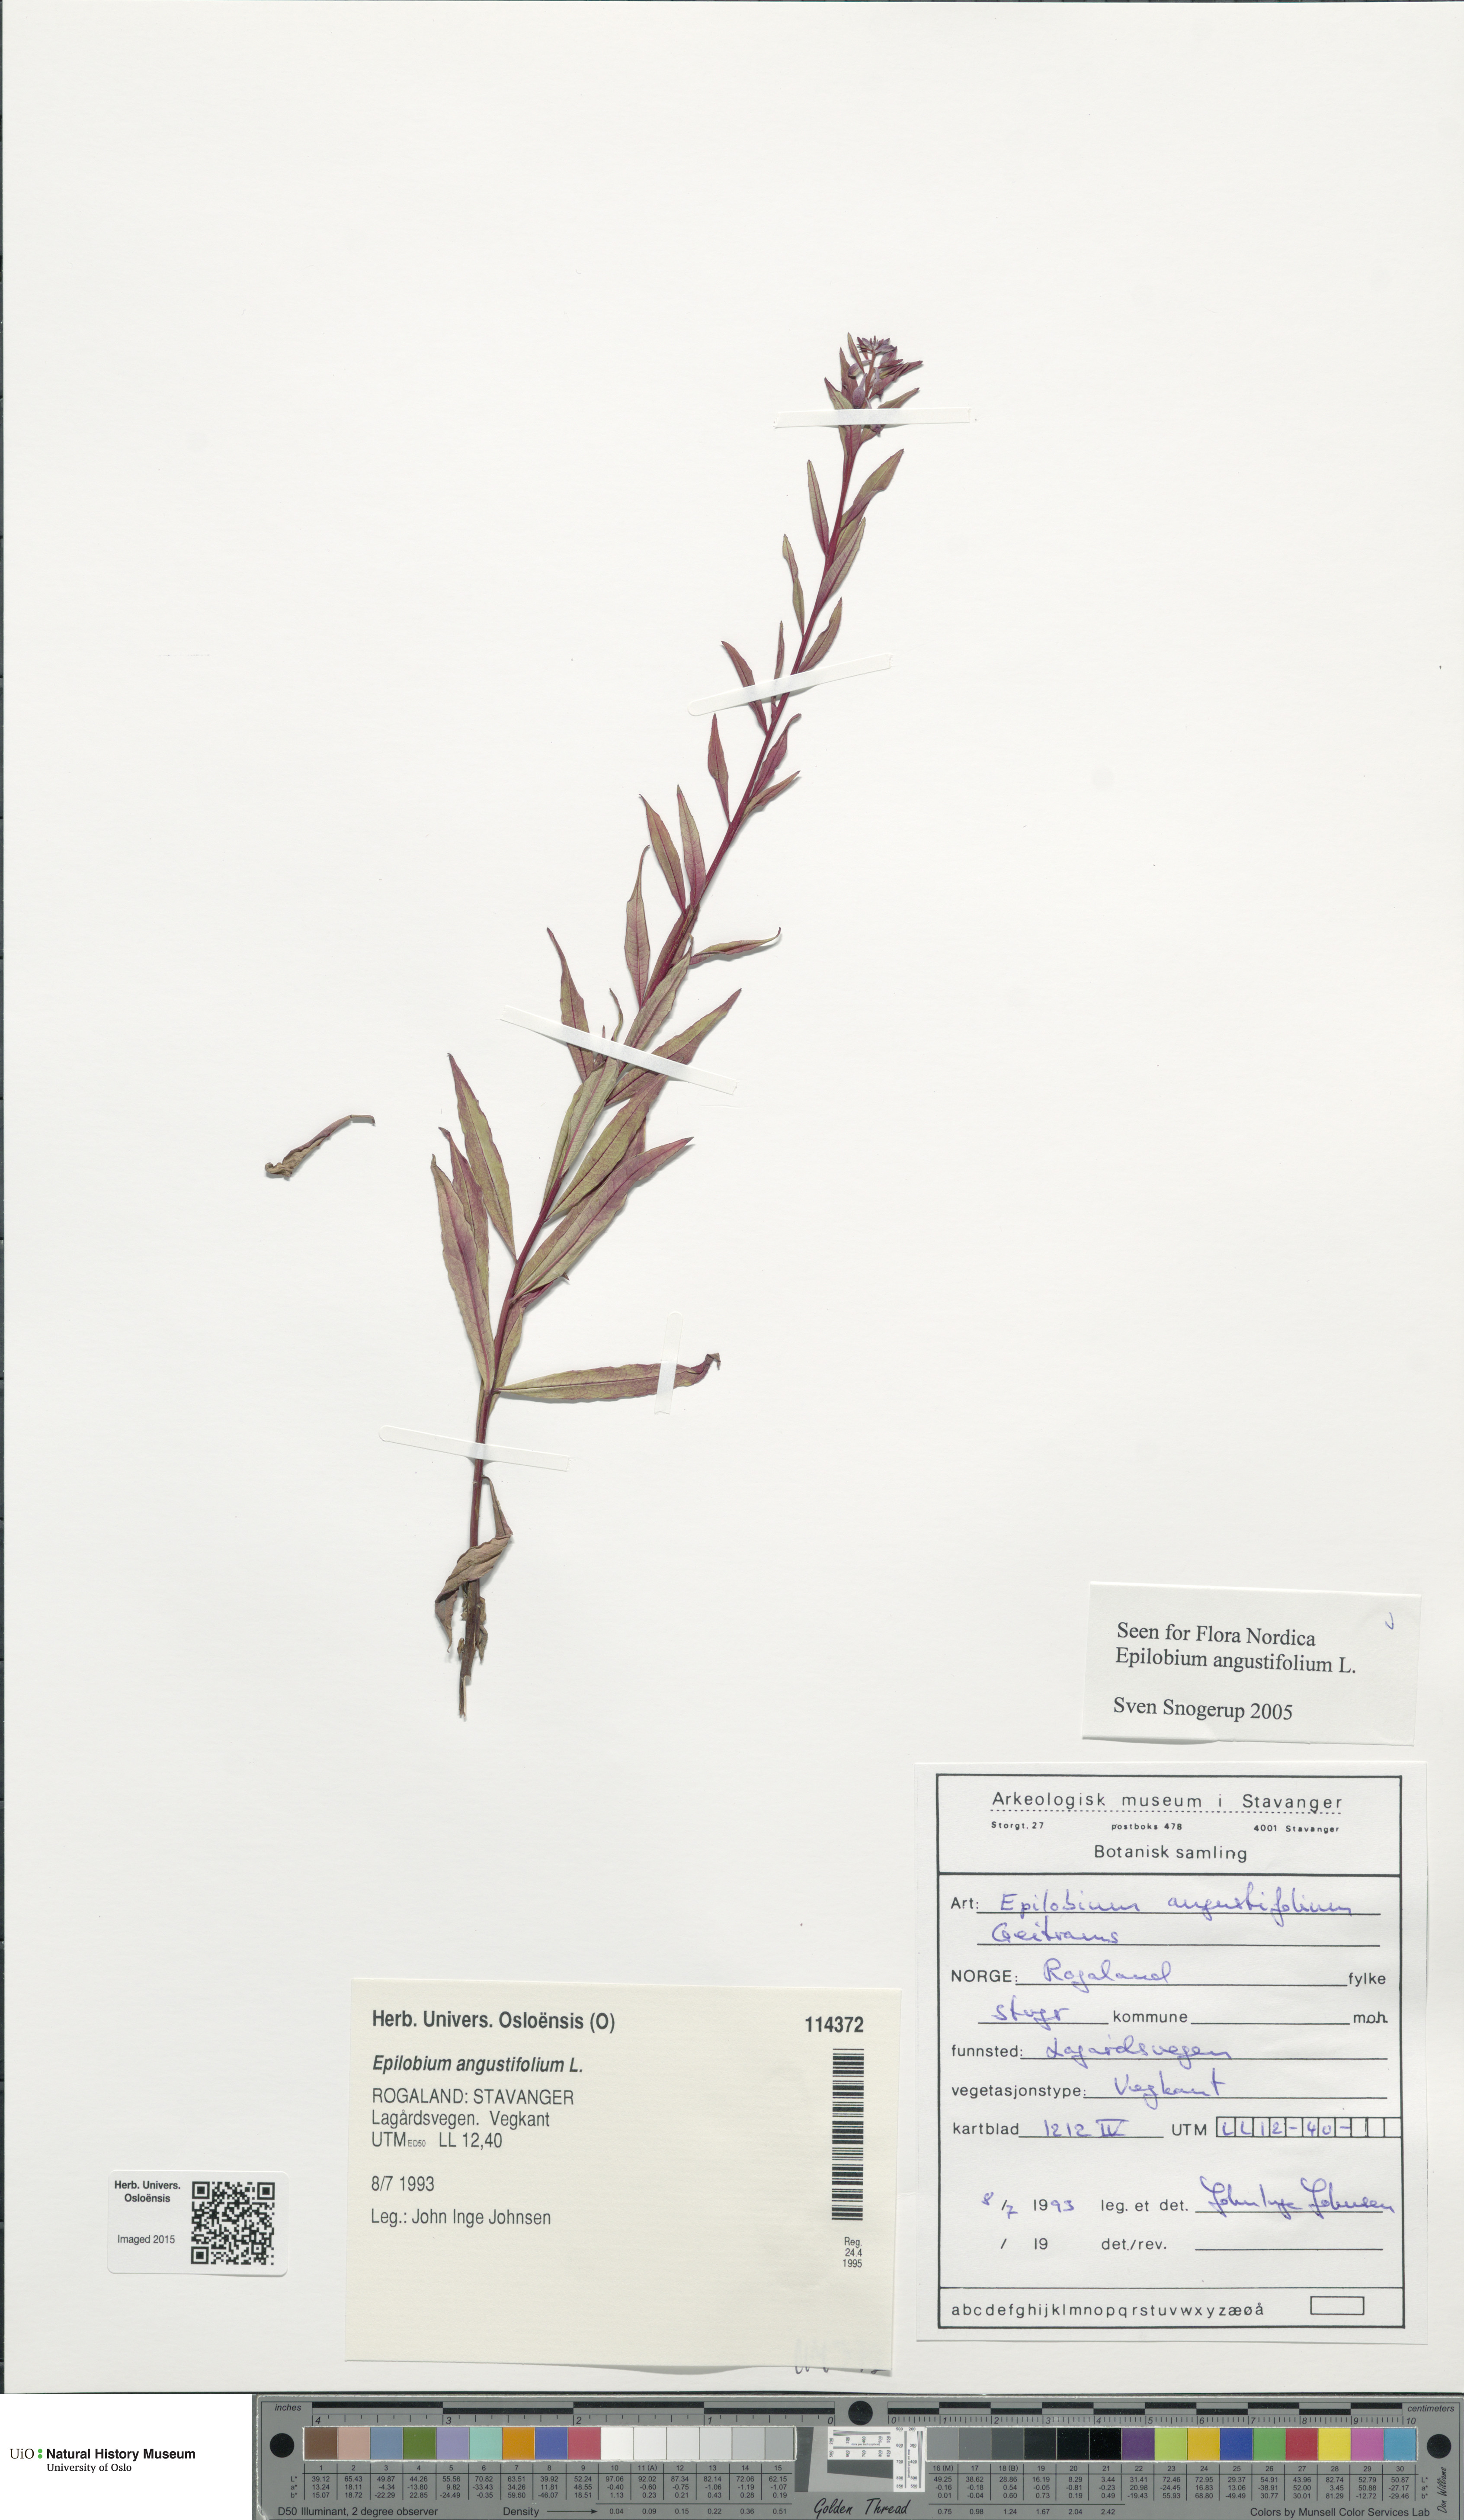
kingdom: Plantae
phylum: Tracheophyta
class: Magnoliopsida
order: Myrtales
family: Onagraceae
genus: Chamaenerion
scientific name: Chamaenerion angustifolium
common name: Fireweed
